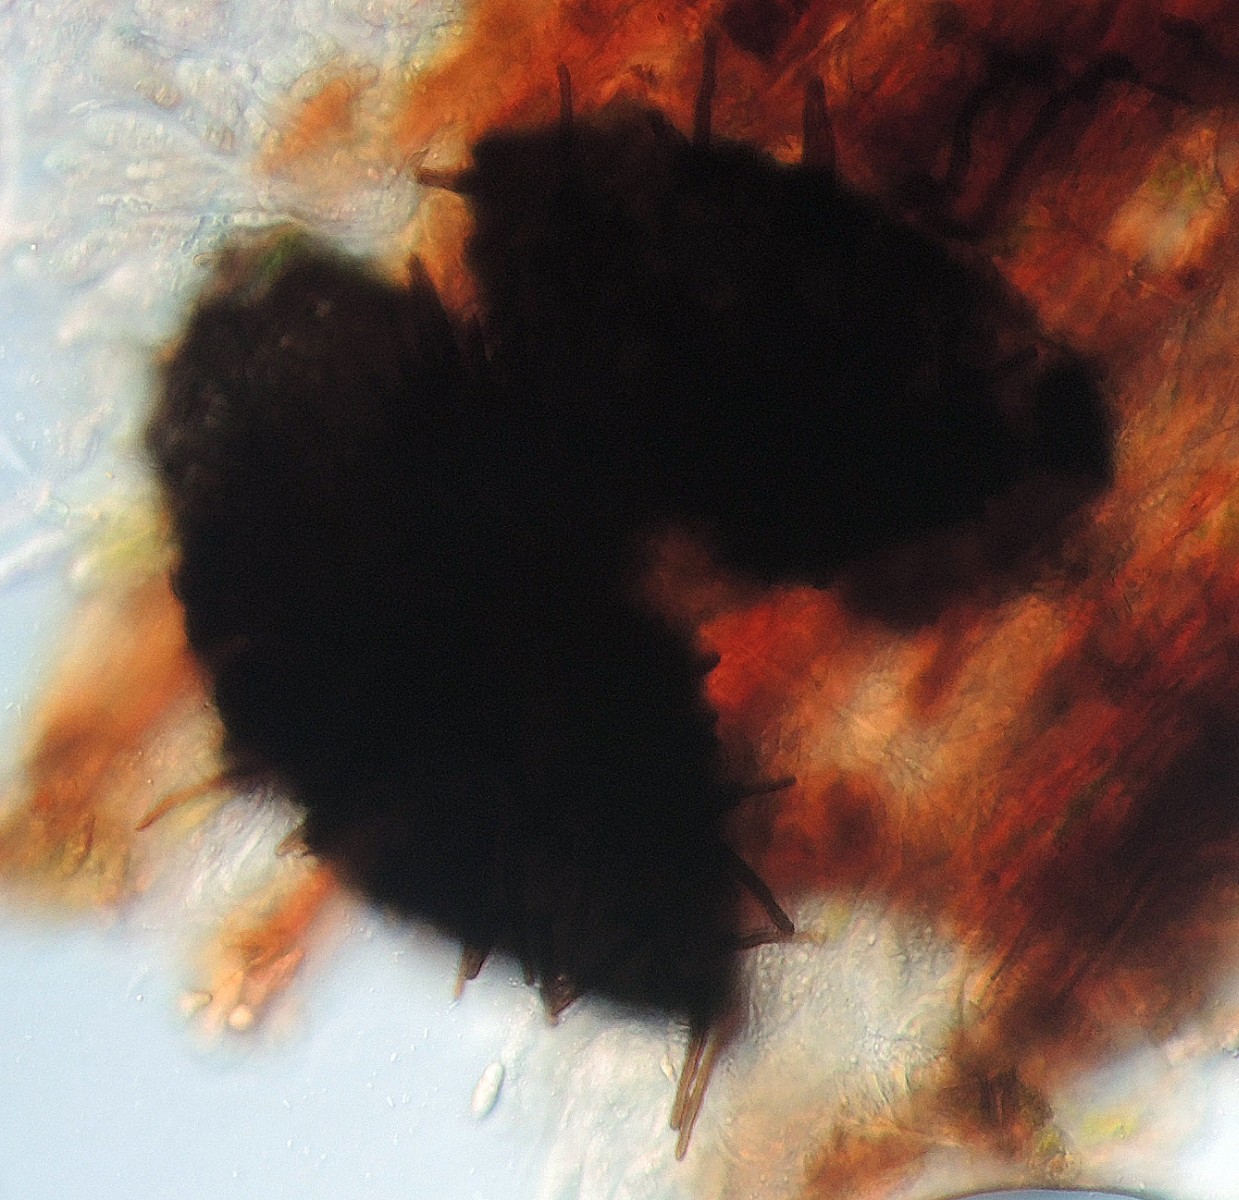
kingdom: Fungi
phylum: Ascomycota
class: Eurotiomycetes
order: Chaetothyriales
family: Herpotrichiellaceae
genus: Capronia
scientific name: Capronia pilosella
